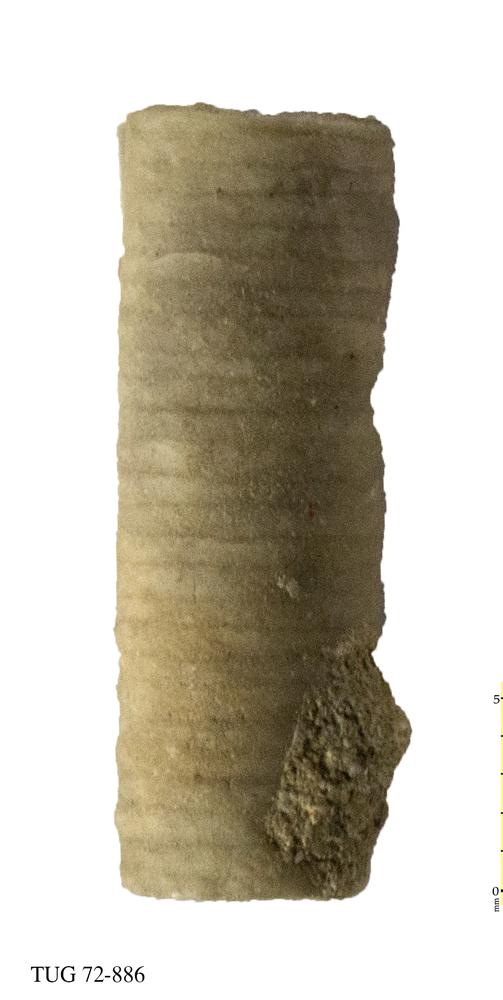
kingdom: Animalia
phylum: Echinodermata
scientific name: Echinodermata
